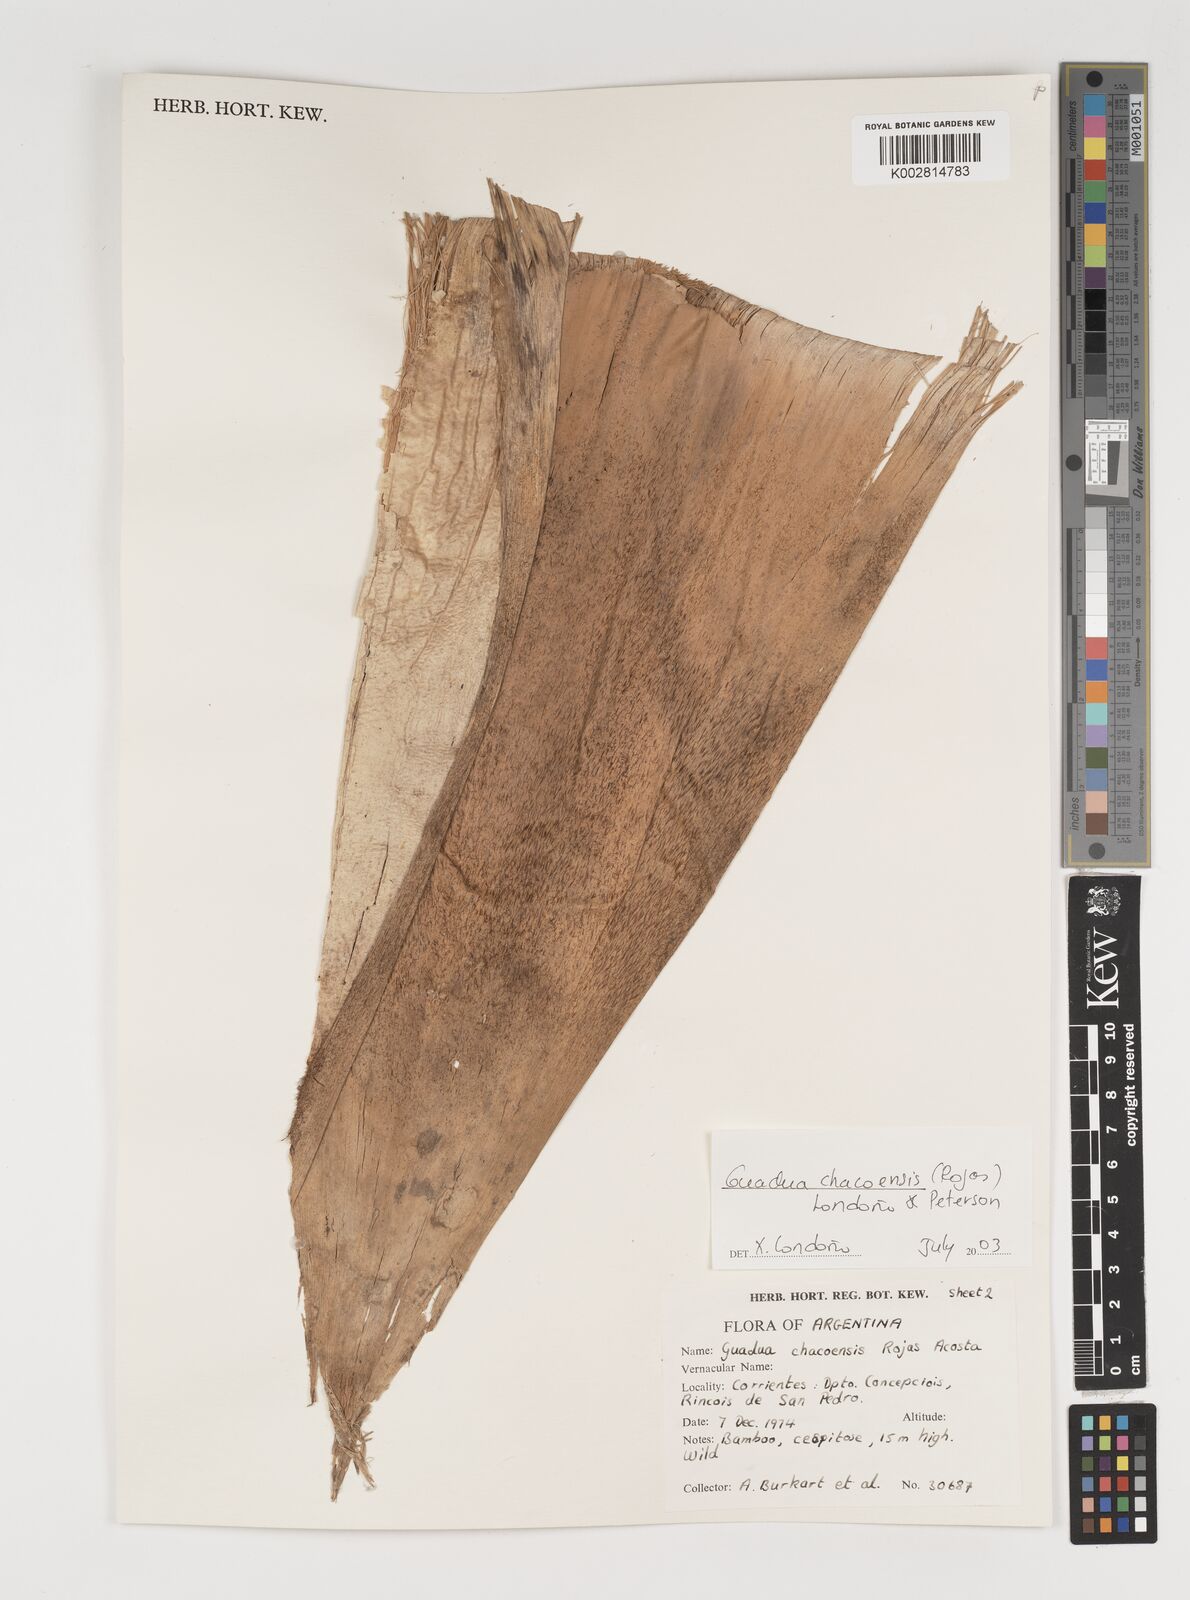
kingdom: Plantae
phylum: Tracheophyta
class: Liliopsida
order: Poales
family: Poaceae
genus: Guadua
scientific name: Guadua chacoensis
